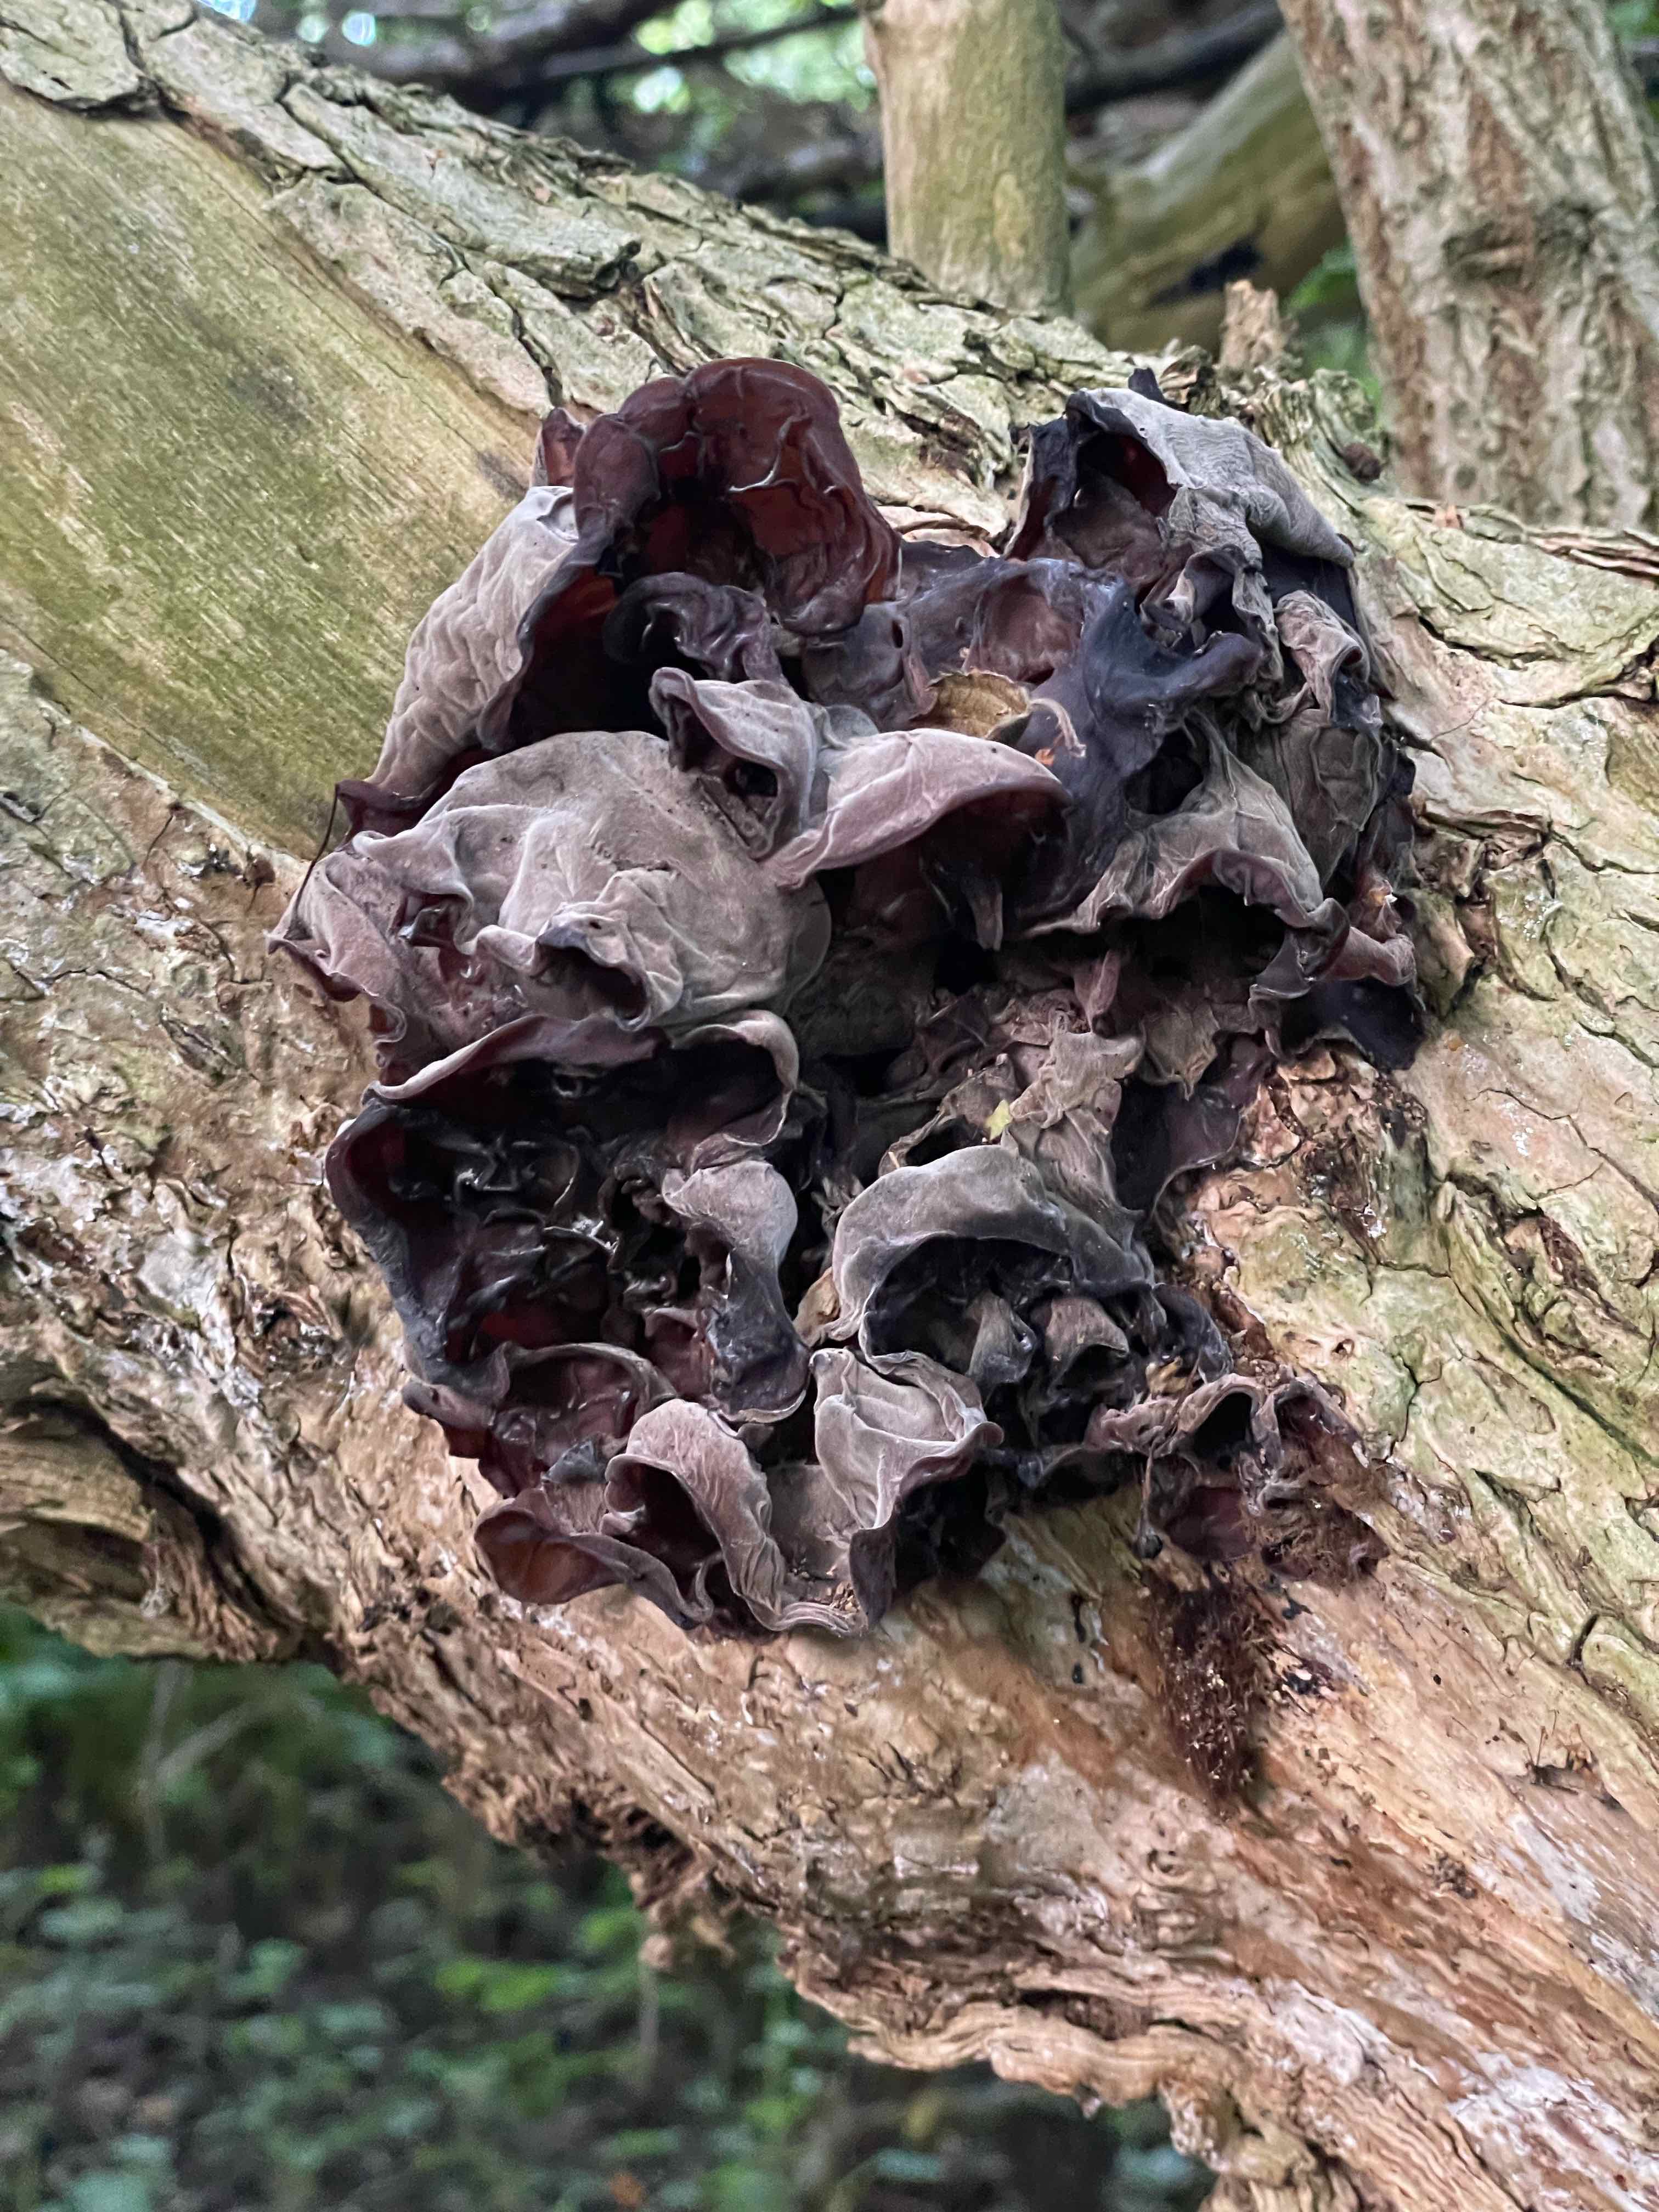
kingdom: Fungi
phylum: Basidiomycota
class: Agaricomycetes
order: Auriculariales
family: Auriculariaceae
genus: Auricularia
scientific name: Auricularia auricula-judae
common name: almindelig judasøre
